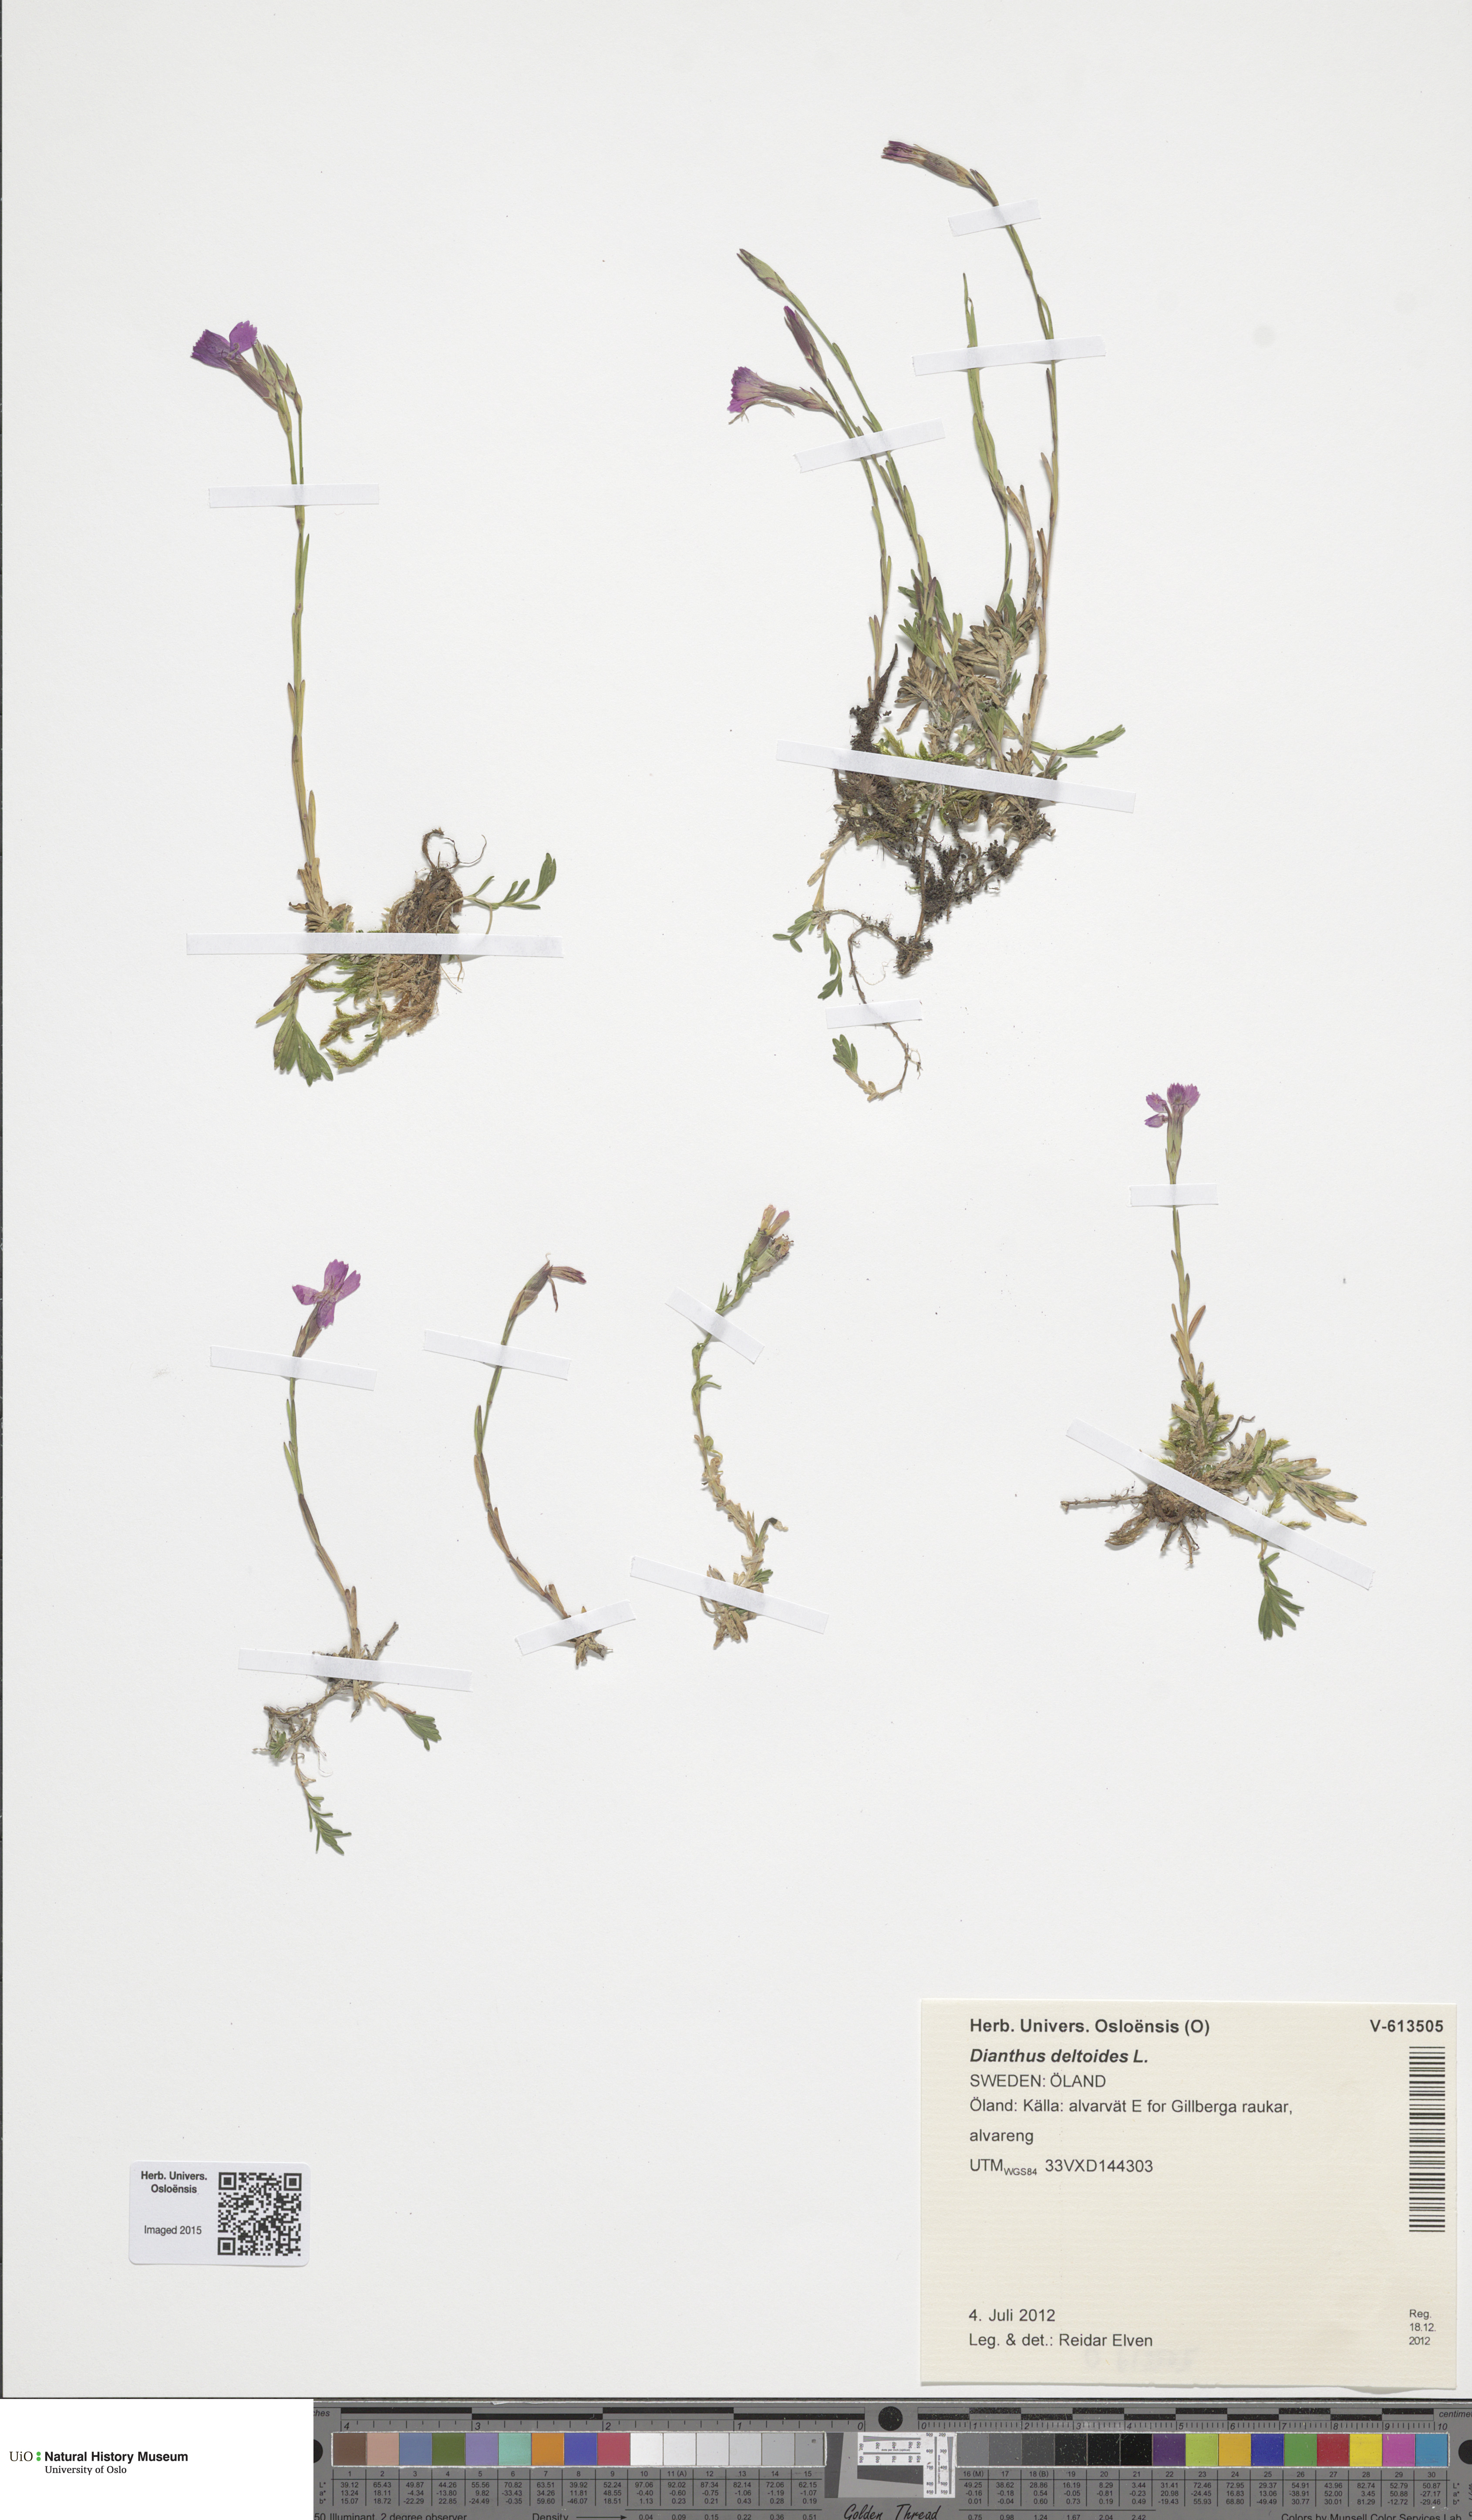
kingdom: Plantae
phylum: Tracheophyta
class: Magnoliopsida
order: Caryophyllales
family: Caryophyllaceae
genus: Dianthus
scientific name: Dianthus deltoides
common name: Maiden pink
